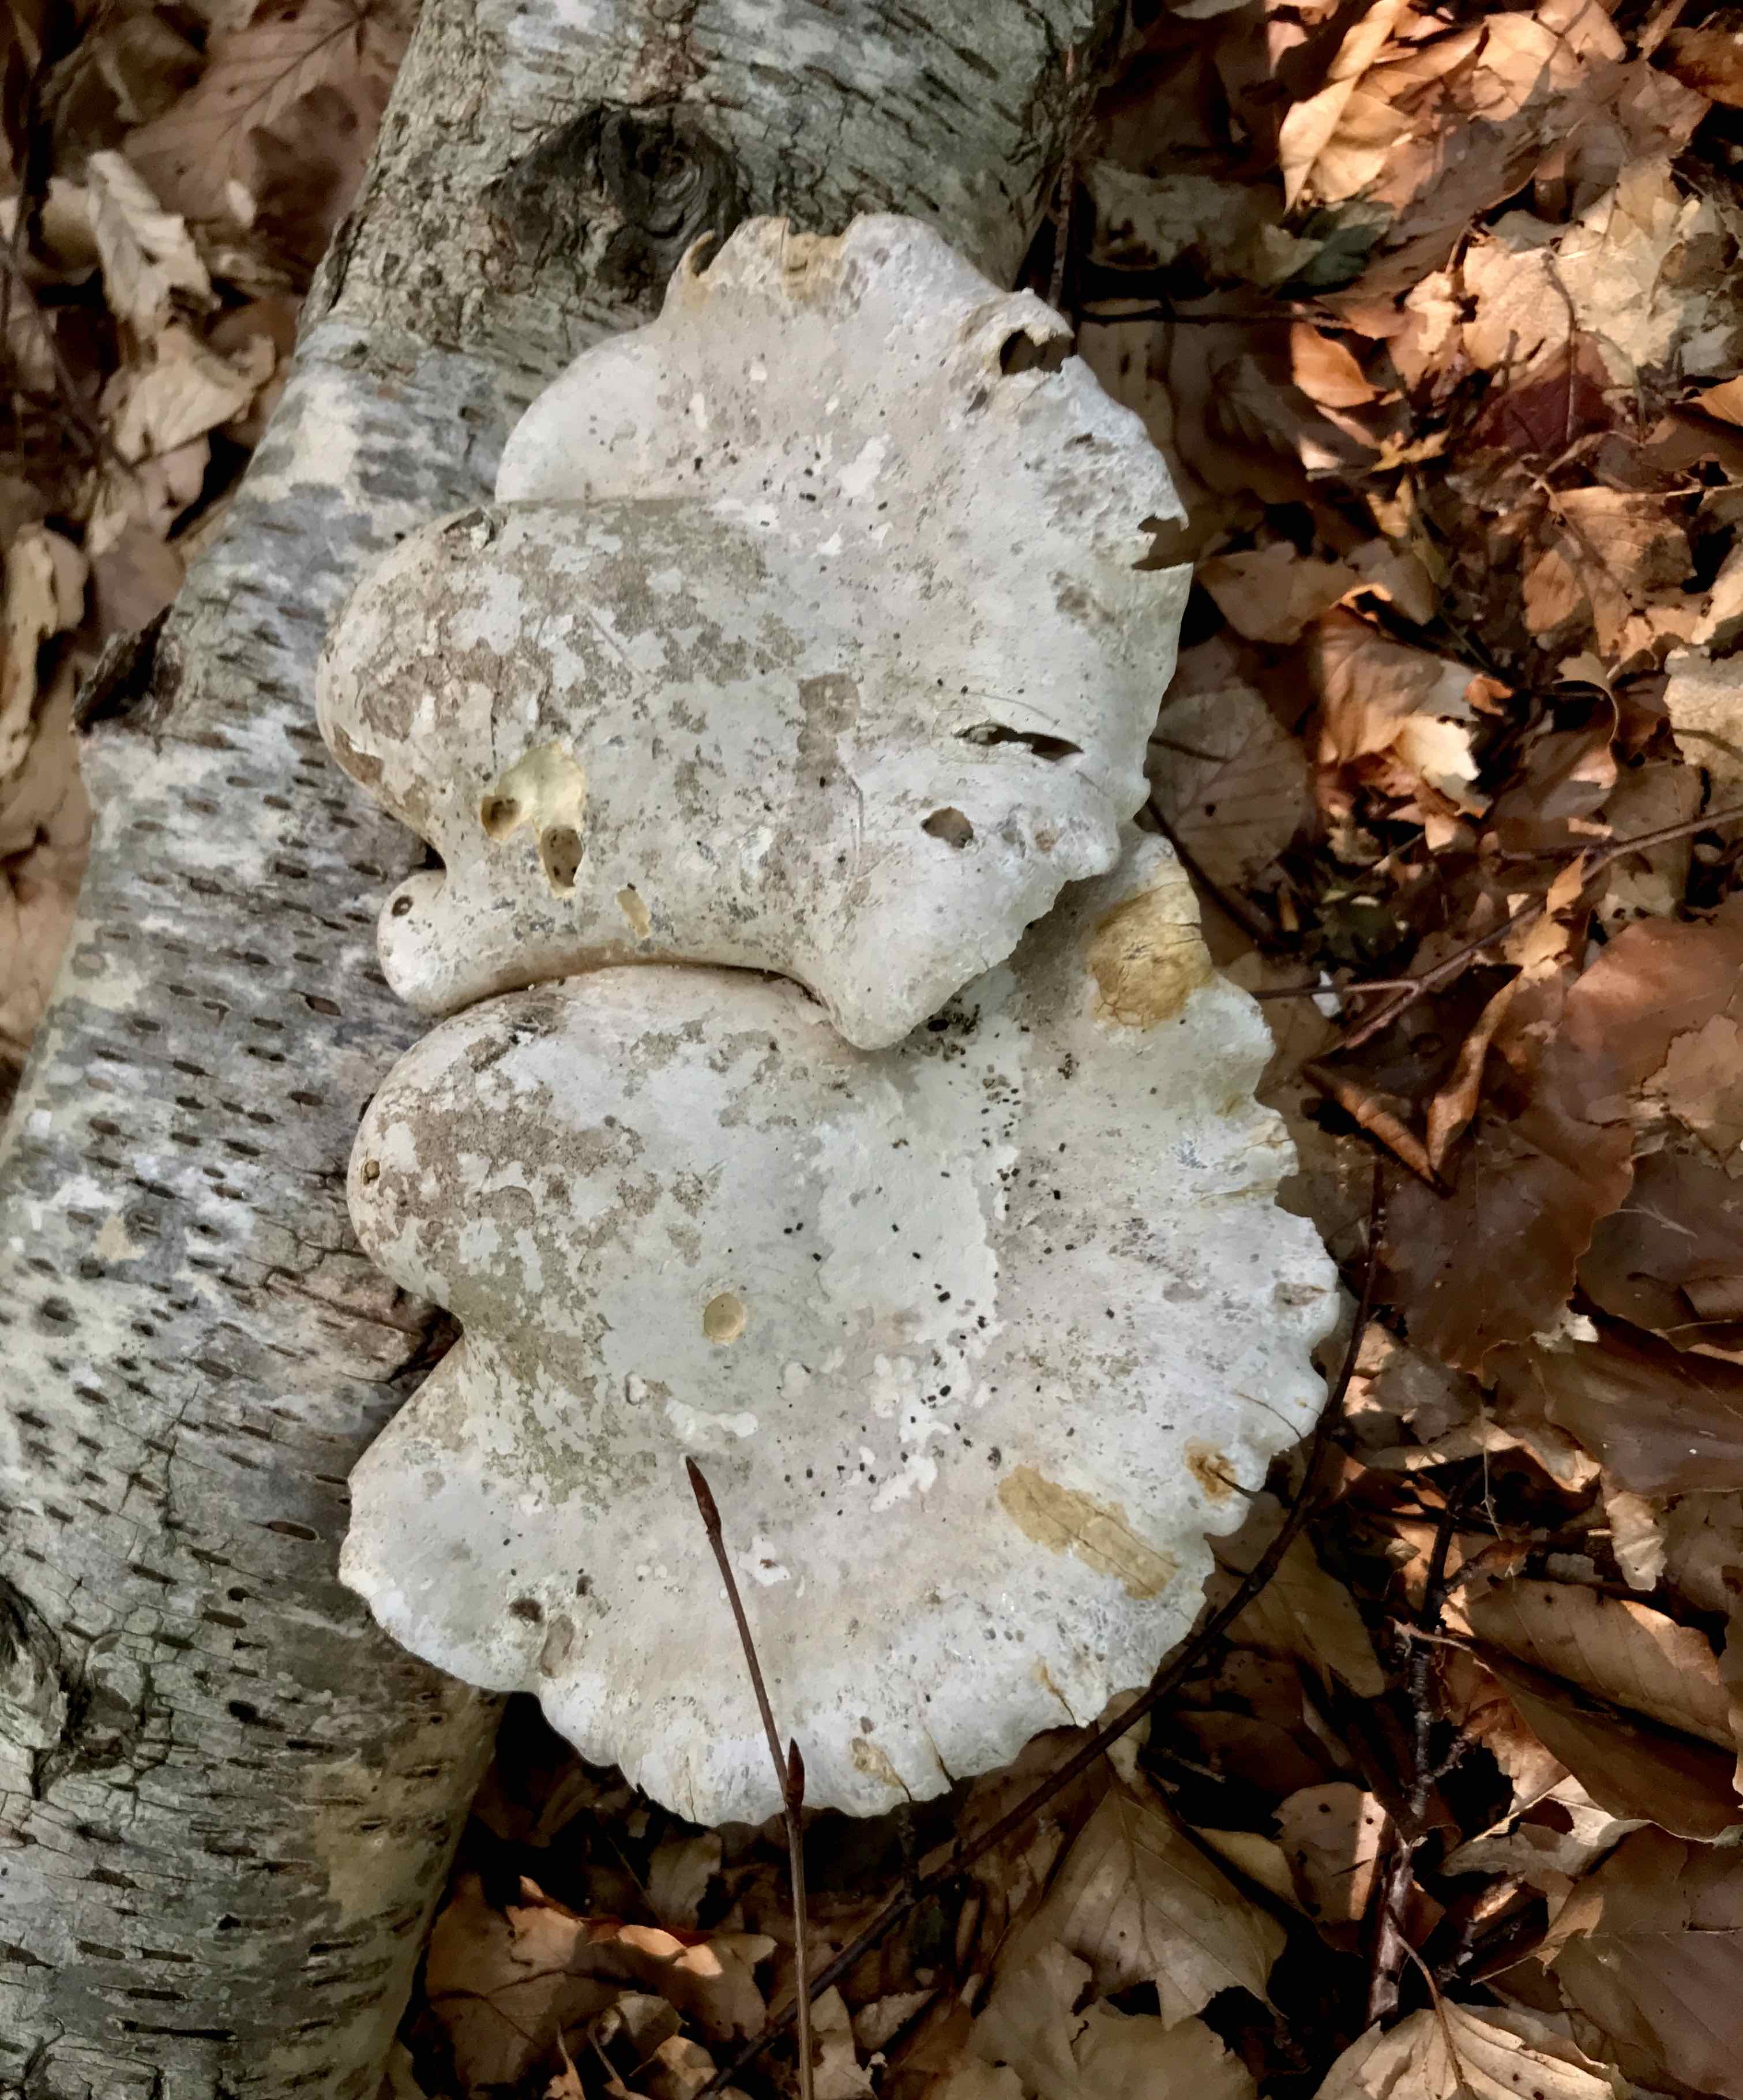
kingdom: Fungi
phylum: Basidiomycota
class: Agaricomycetes
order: Polyporales
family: Fomitopsidaceae
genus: Fomitopsis
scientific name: Fomitopsis betulina
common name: birkeporesvamp
